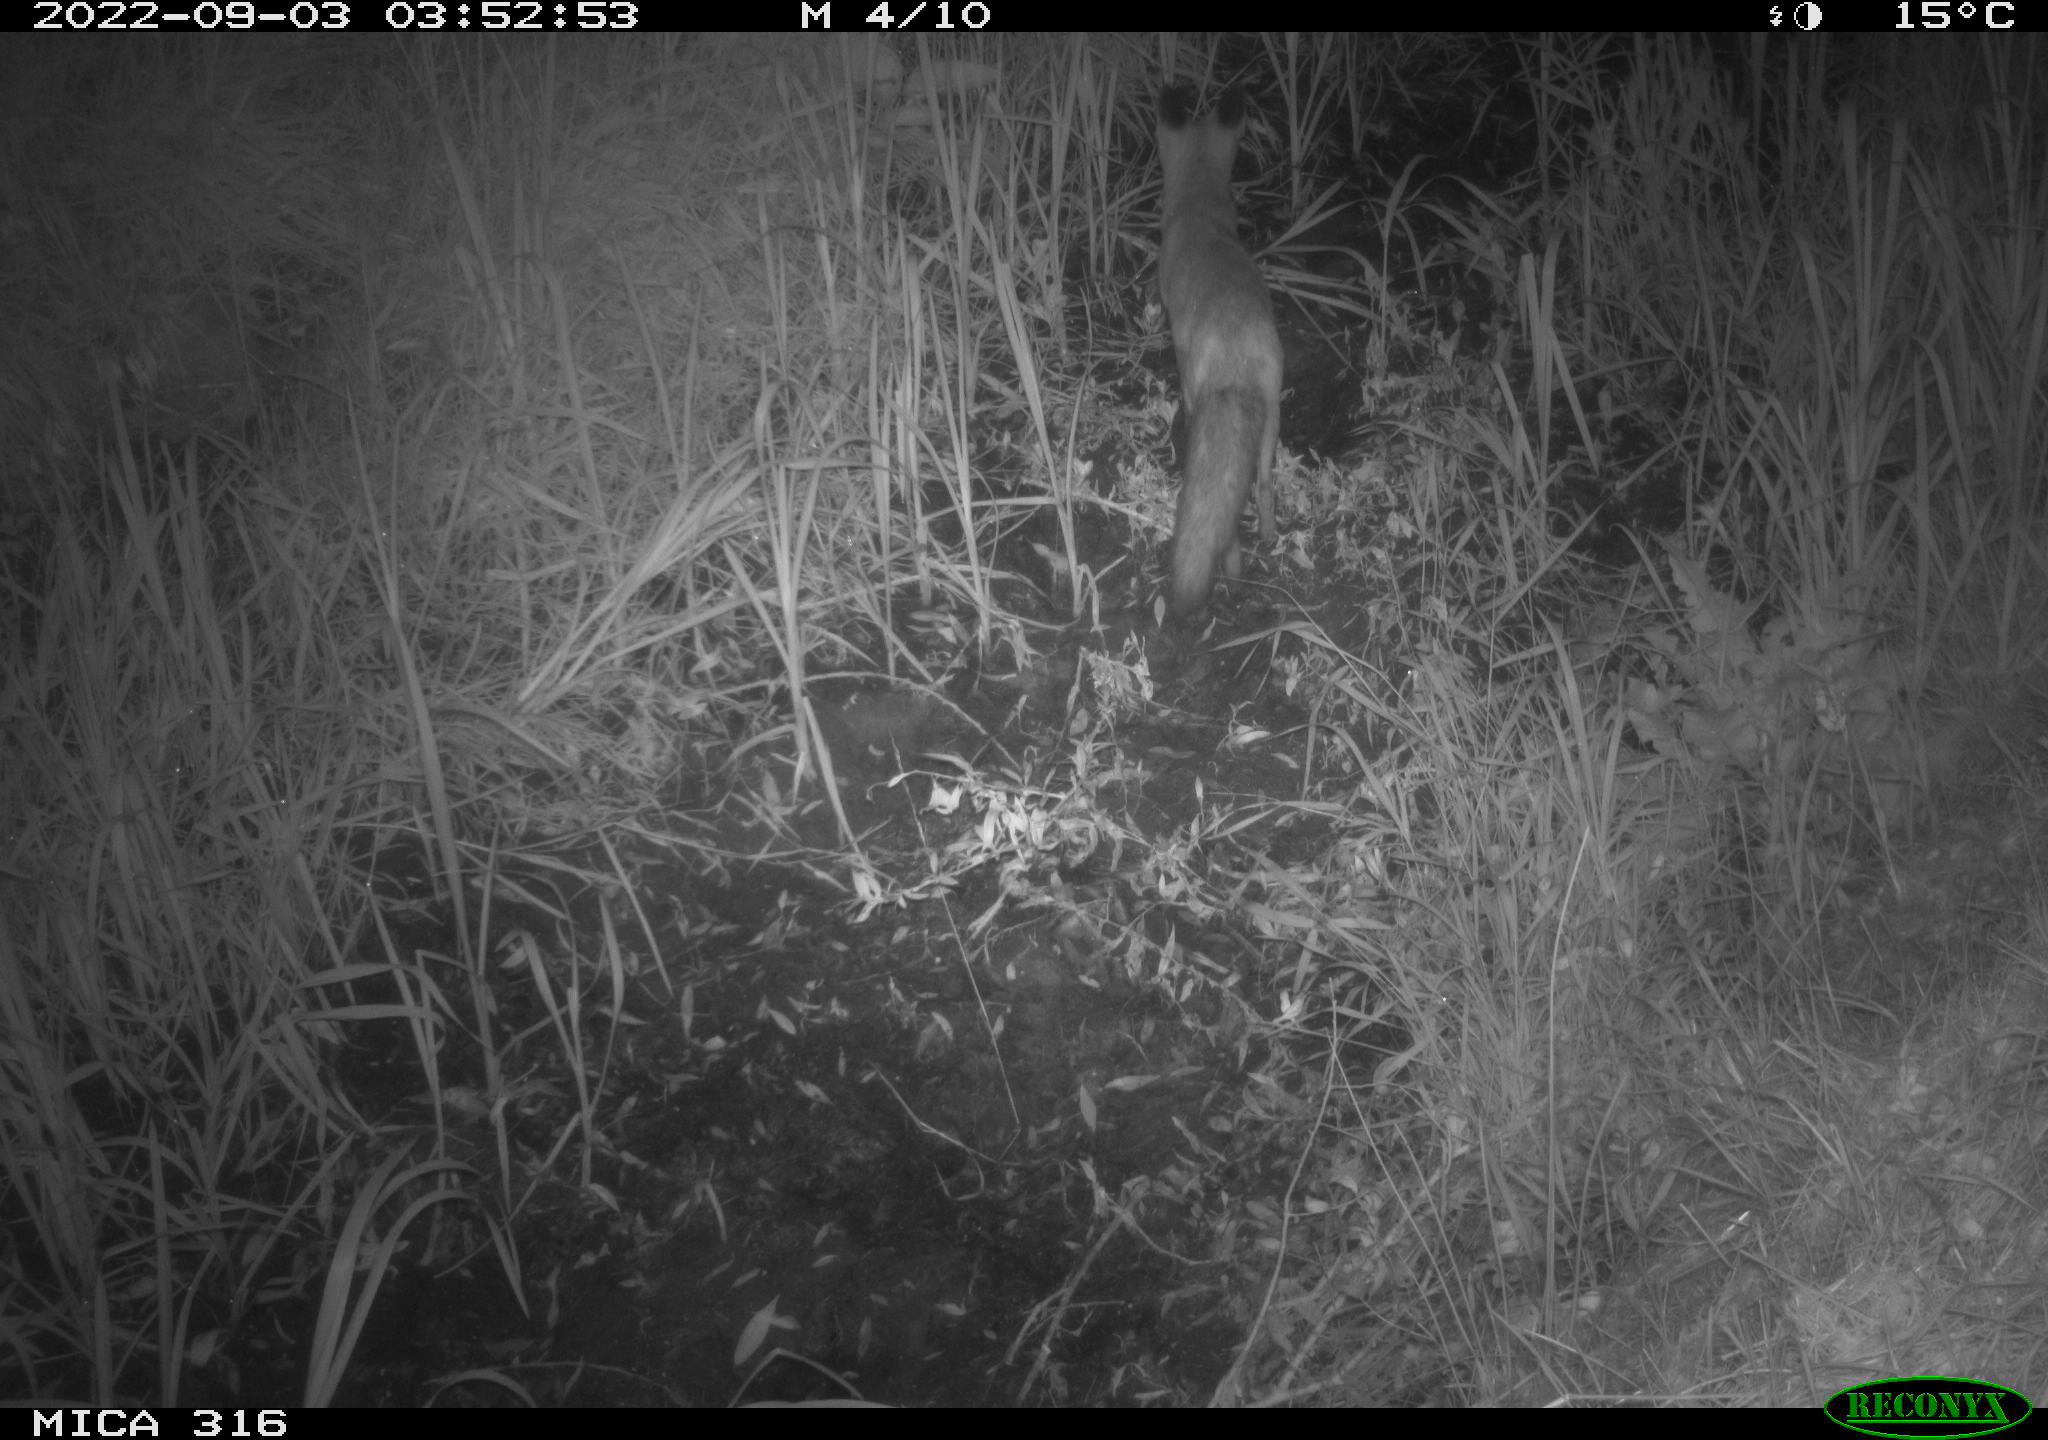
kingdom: Animalia
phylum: Chordata
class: Mammalia
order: Carnivora
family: Canidae
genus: Vulpes
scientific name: Vulpes vulpes
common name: Red fox
